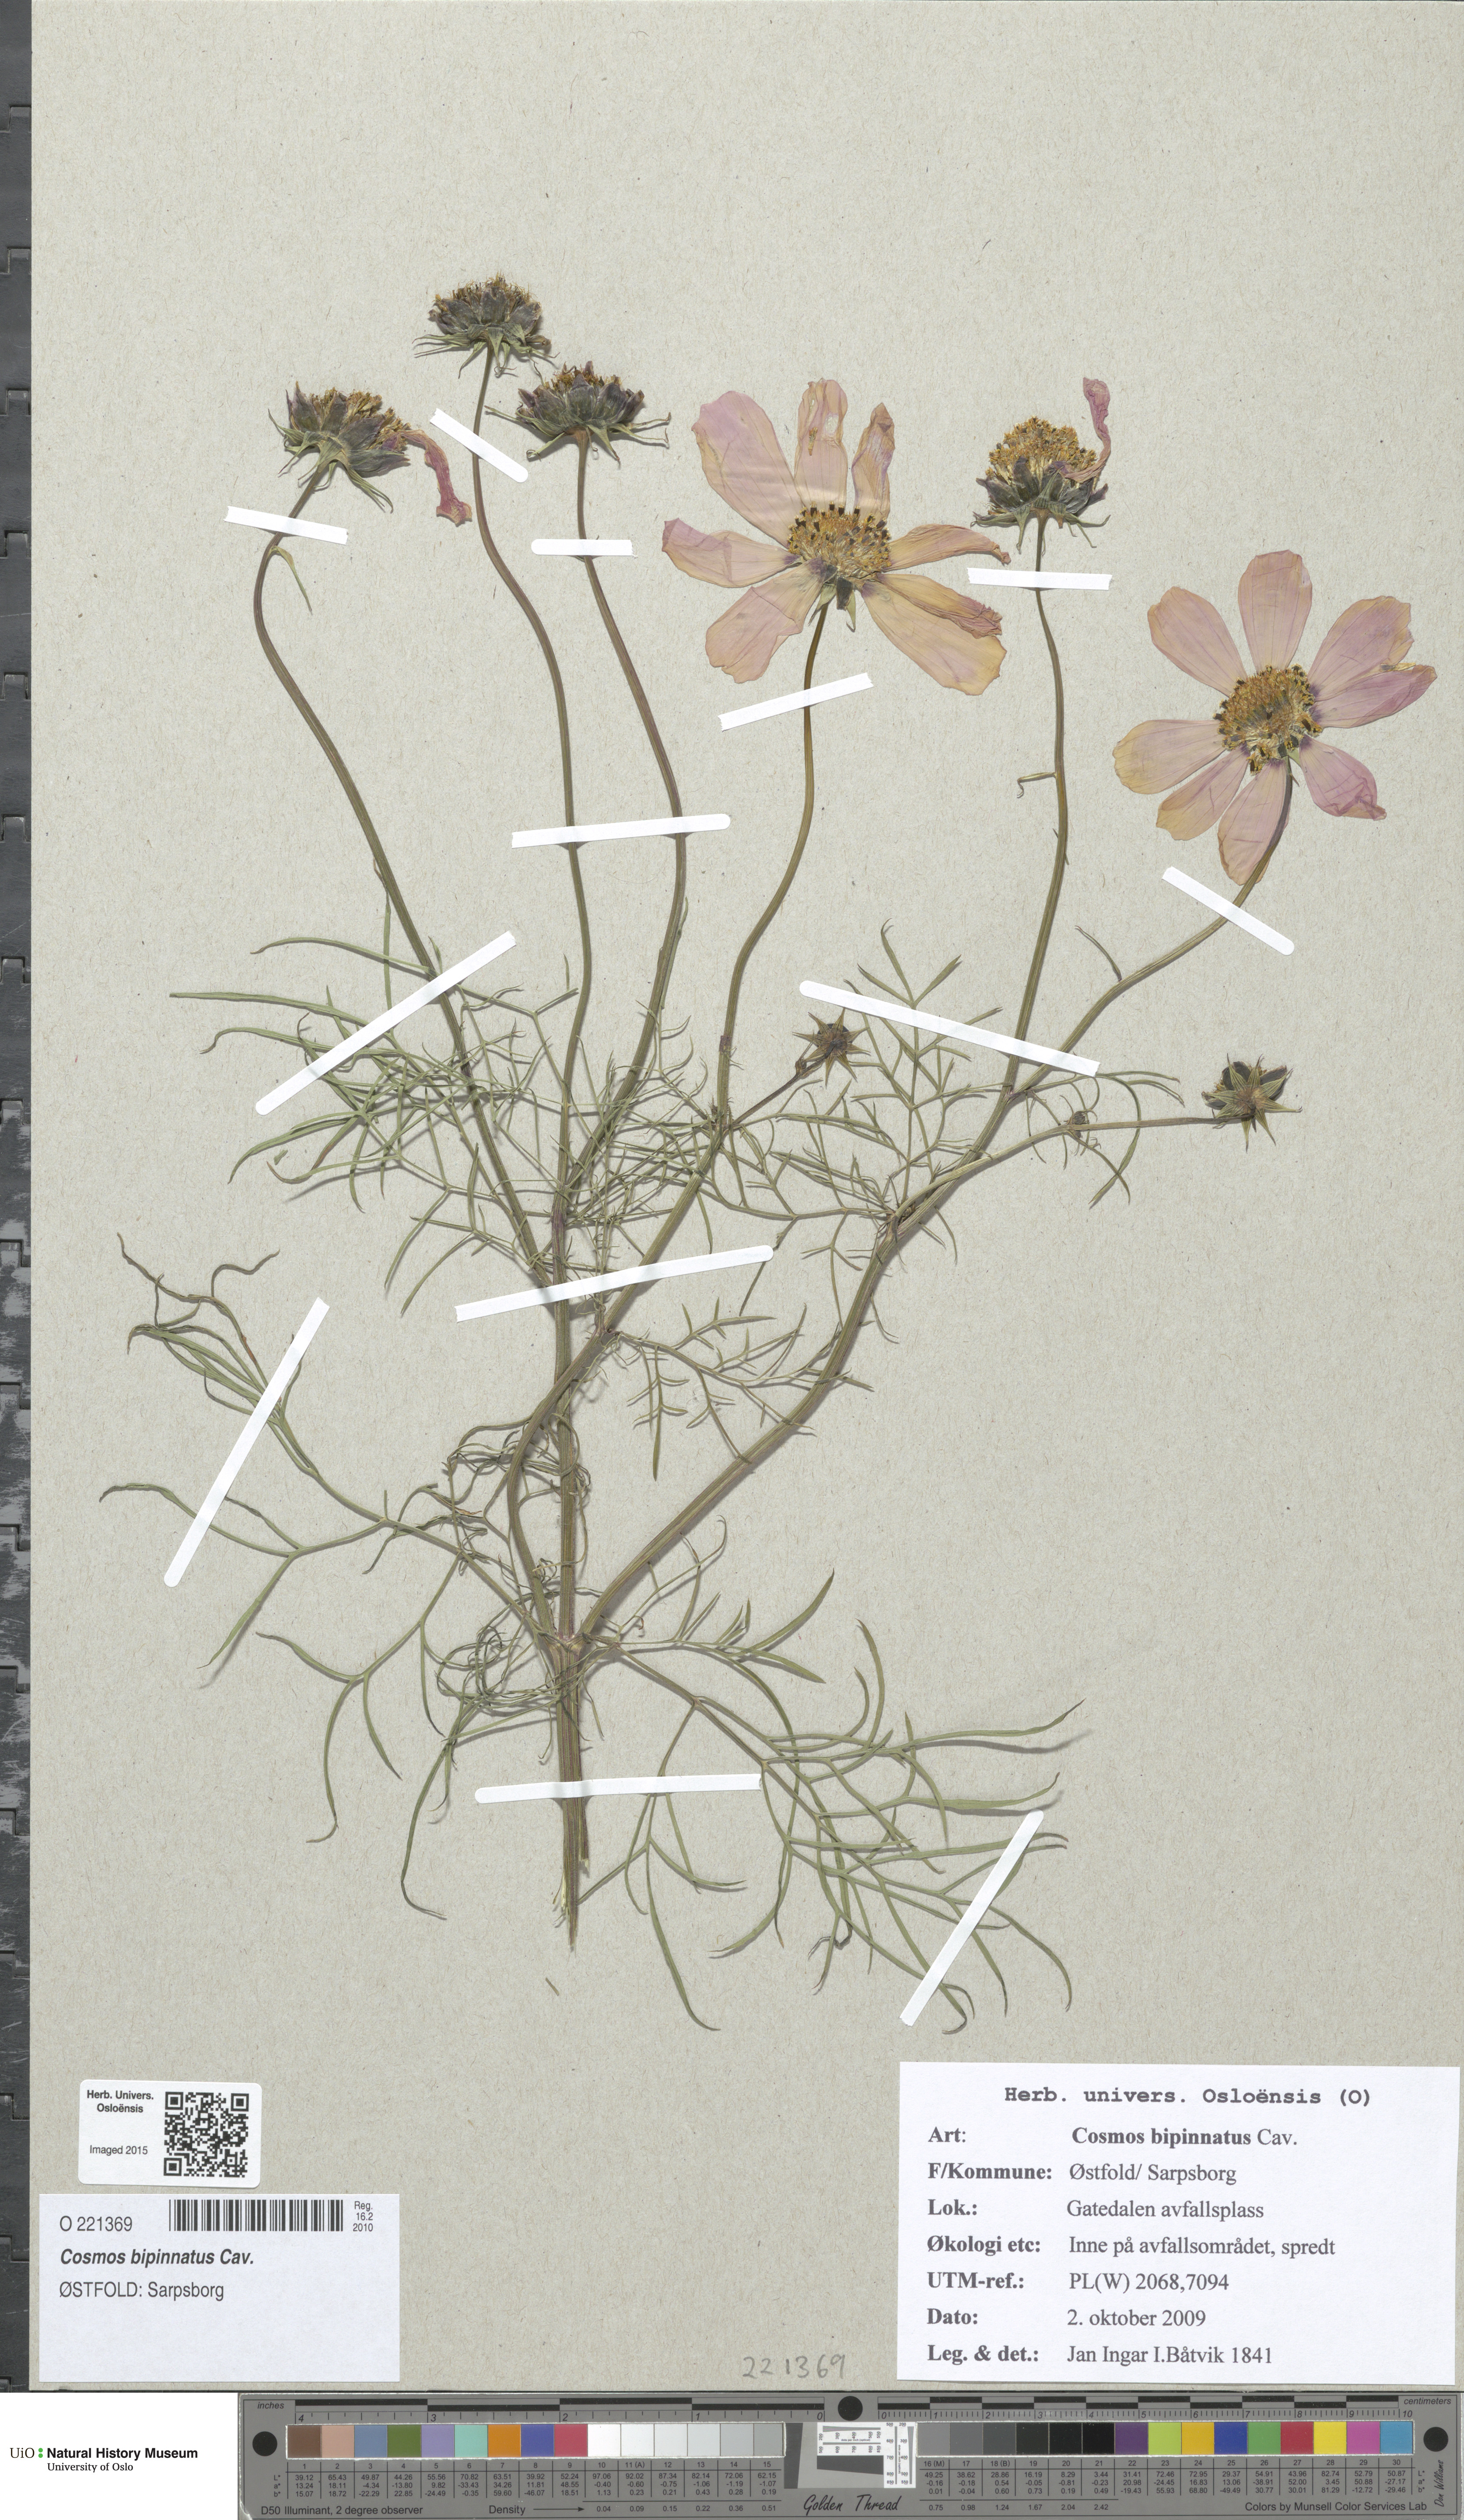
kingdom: Plantae
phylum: Tracheophyta
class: Magnoliopsida
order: Asterales
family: Asteraceae
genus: Cosmos
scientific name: Cosmos bipinnatus
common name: Garden cosmos
